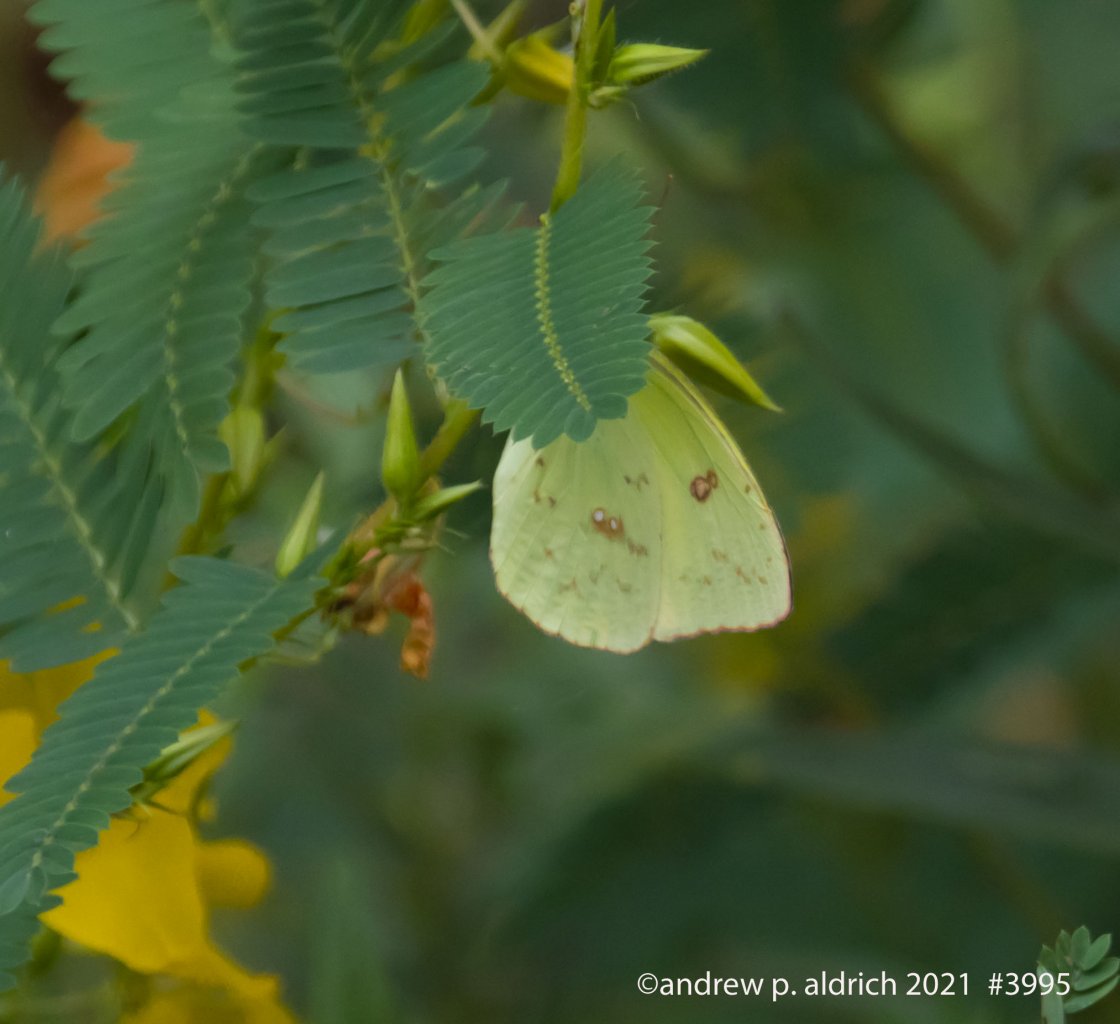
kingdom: Animalia
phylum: Arthropoda
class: Insecta
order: Lepidoptera
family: Pieridae
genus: Phoebis
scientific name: Phoebis sennae
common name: Cloudless Sulphur
